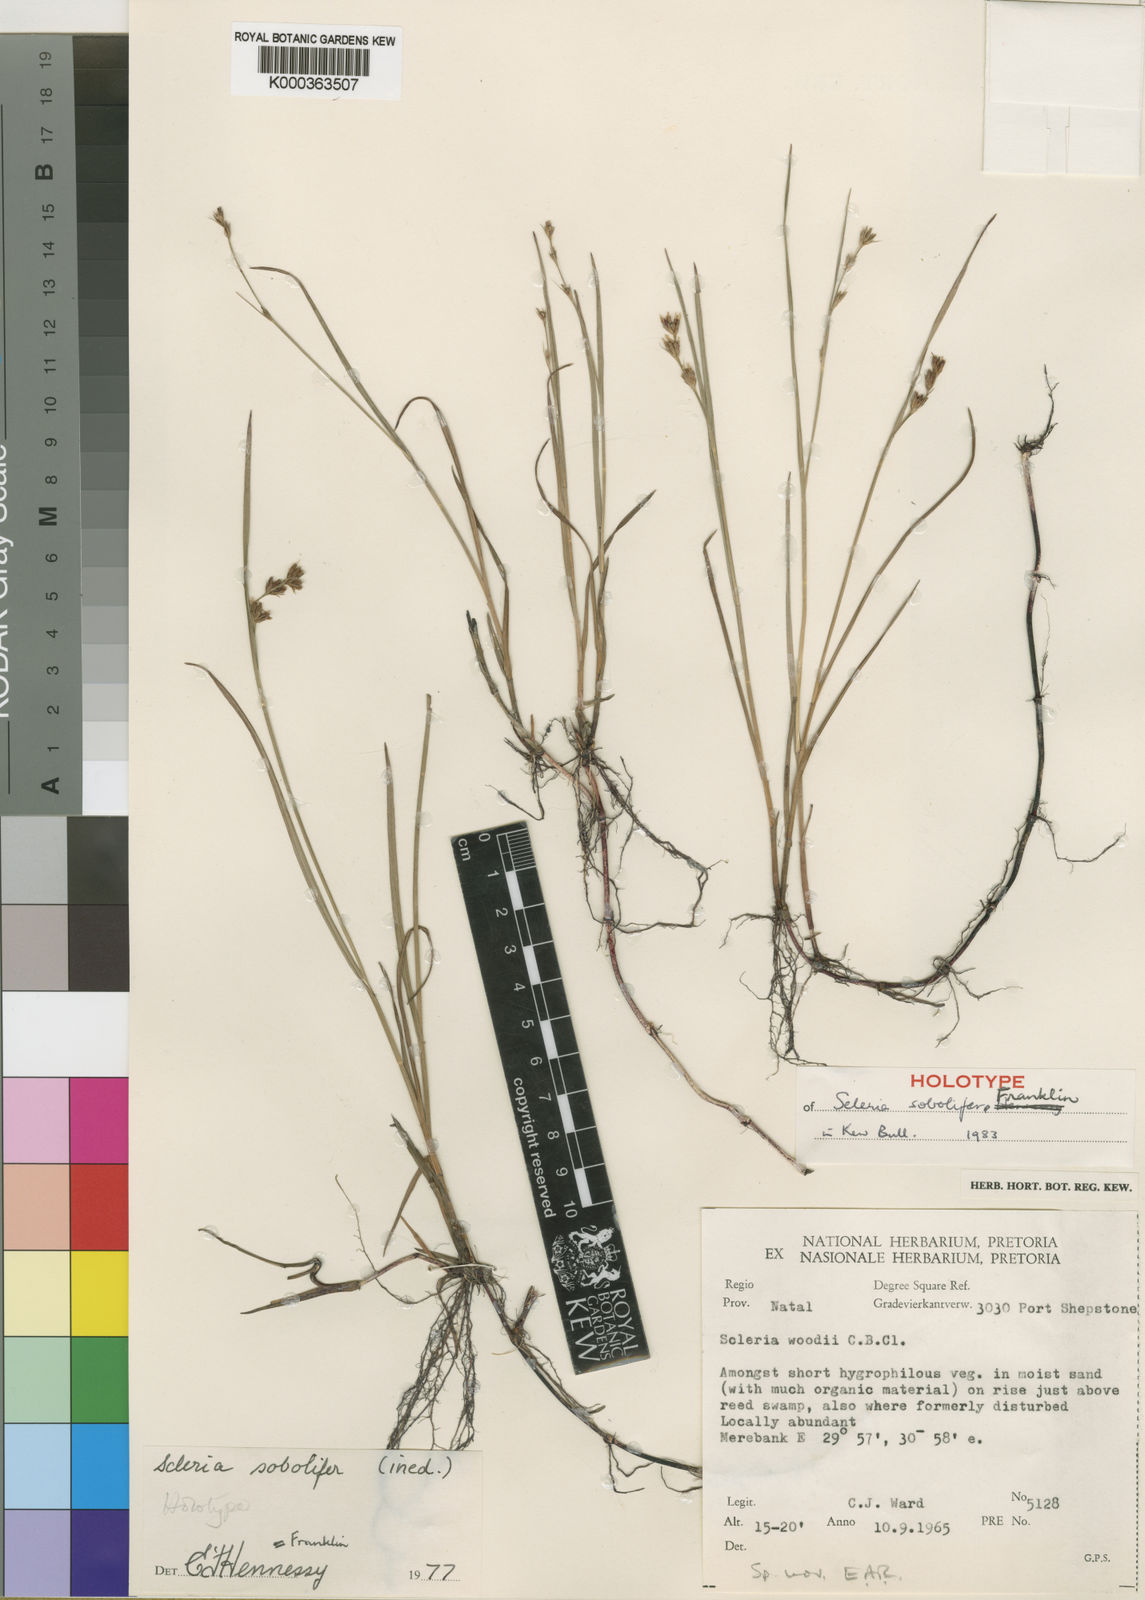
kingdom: Plantae
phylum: Tracheophyta
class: Liliopsida
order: Poales
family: Cyperaceae
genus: Scleria
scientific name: Scleria
